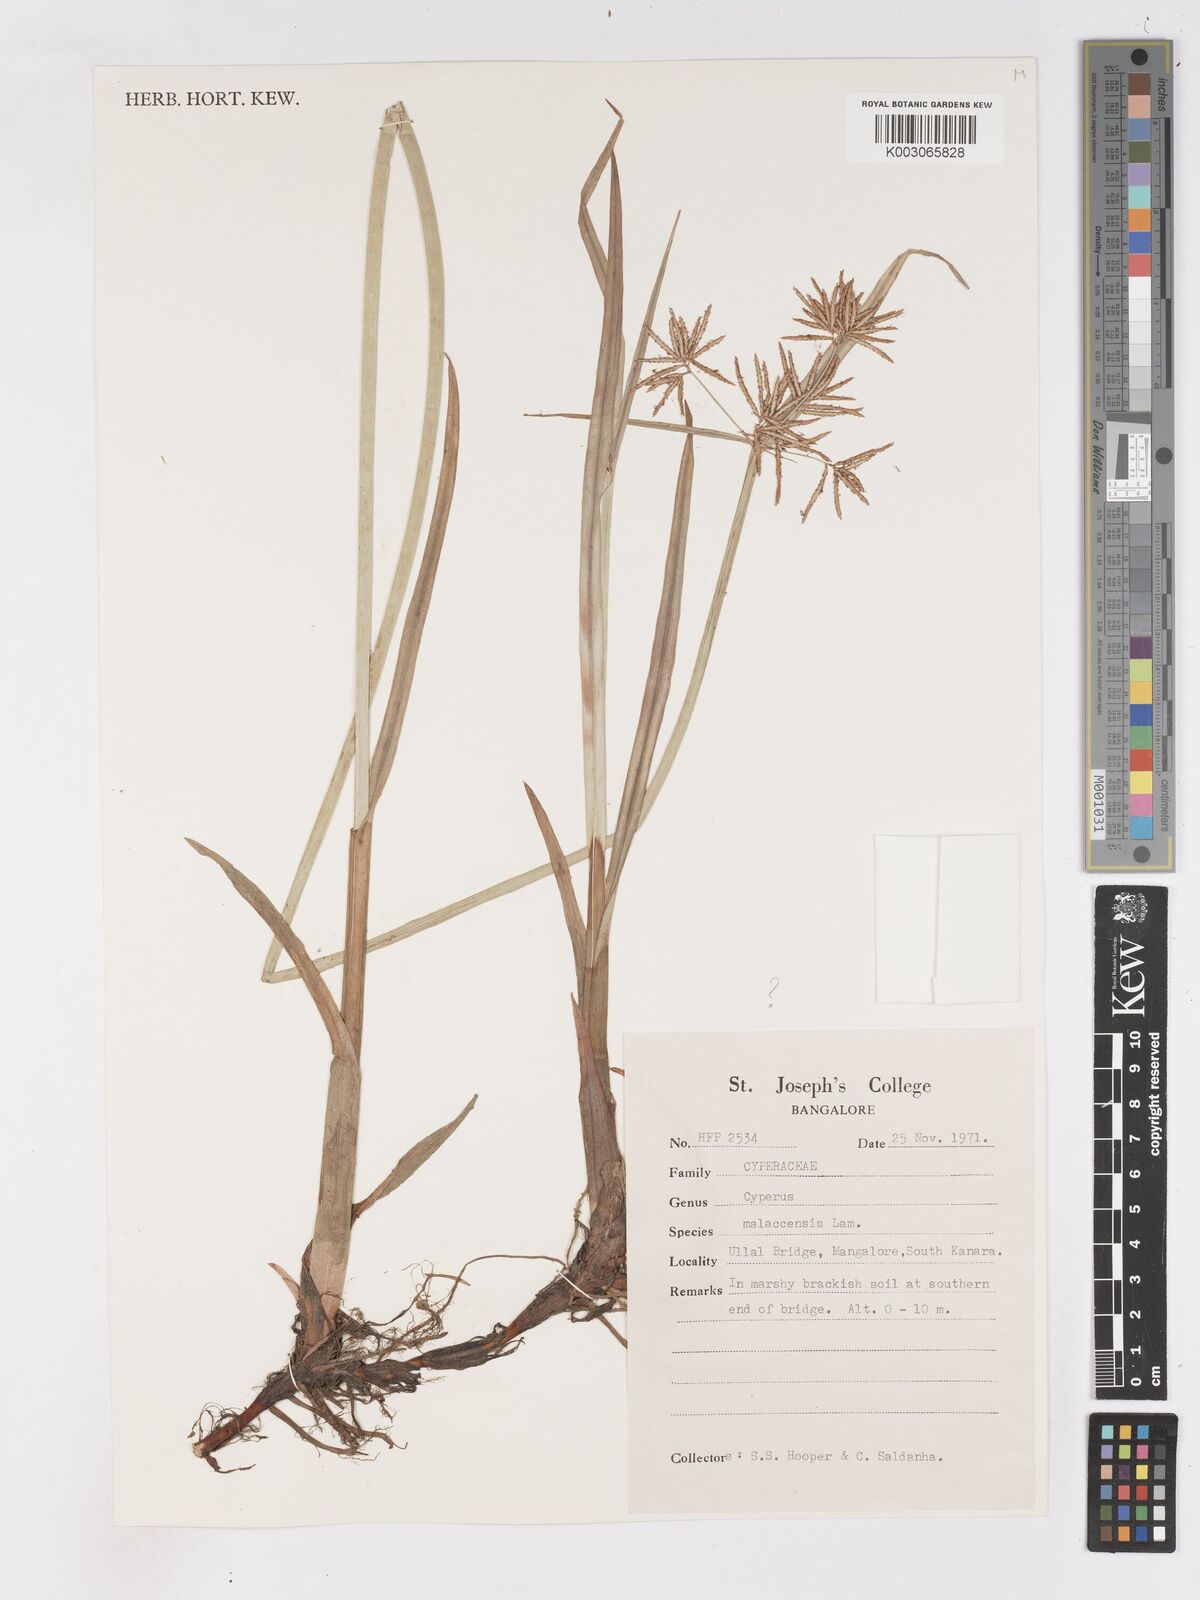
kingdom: Plantae
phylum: Tracheophyta
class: Liliopsida
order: Poales
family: Cyperaceae
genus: Cyperus
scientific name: Cyperus malaccensis
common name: Shichito matgrass
